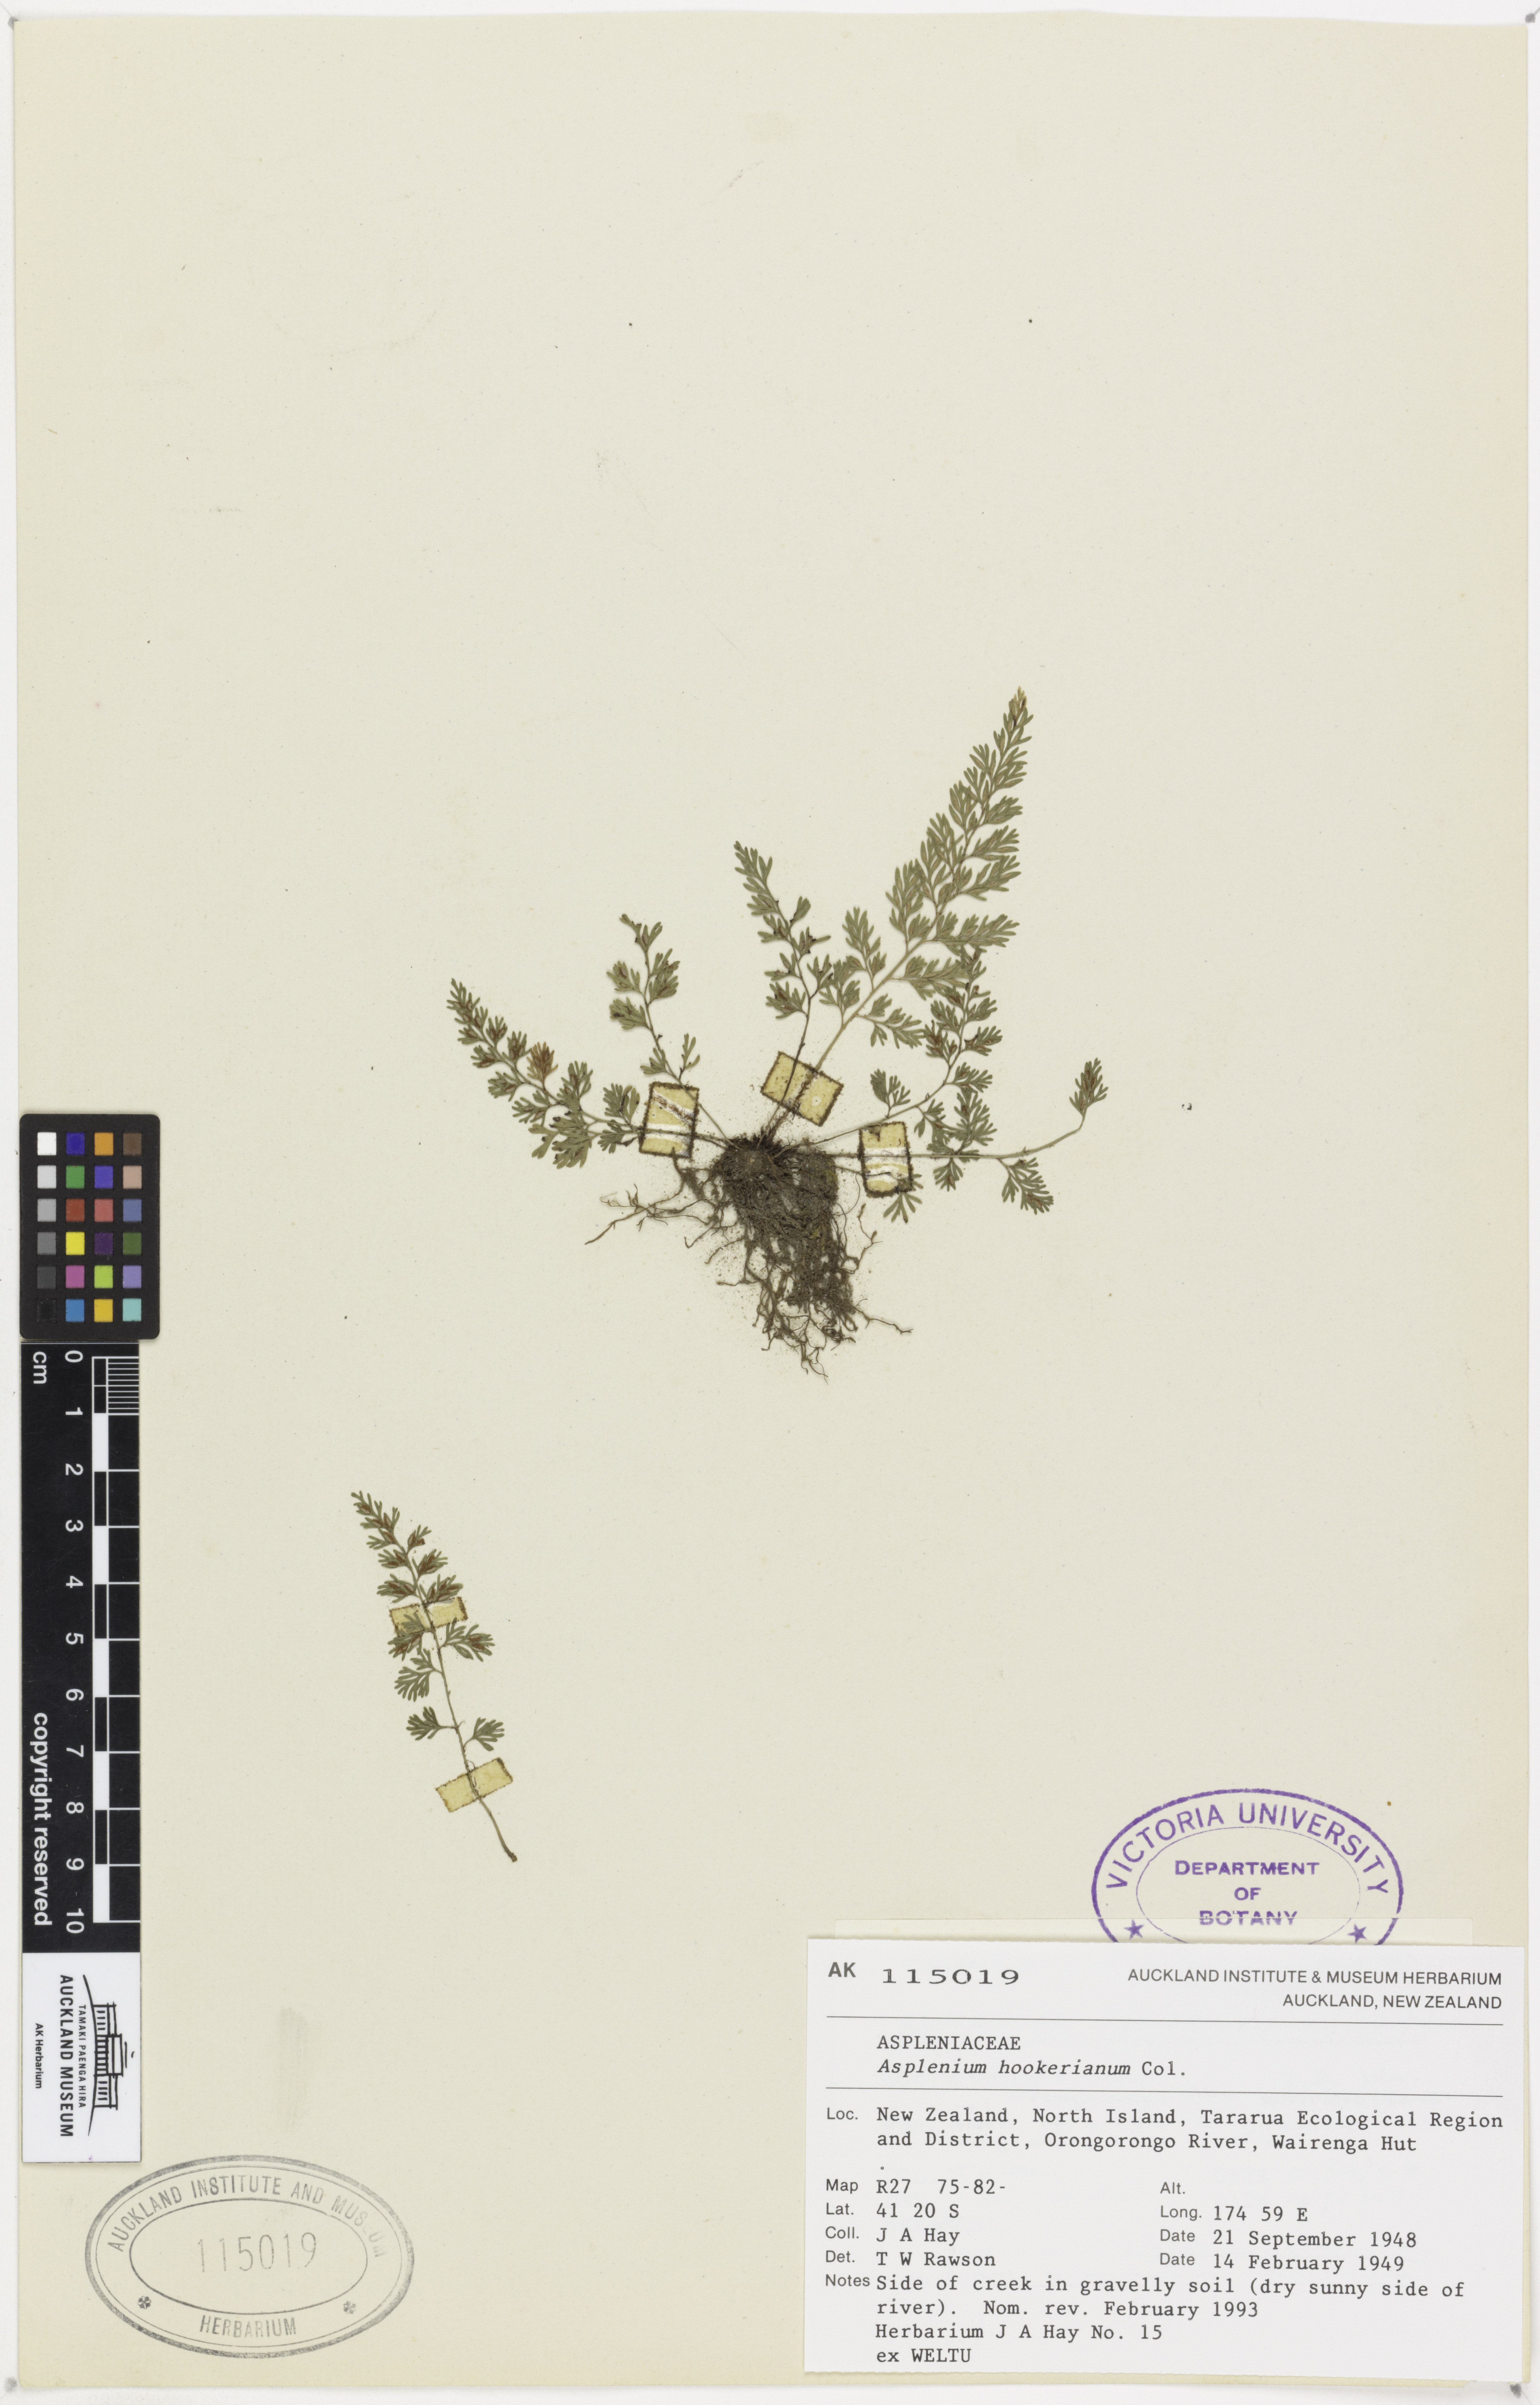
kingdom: Plantae
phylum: Tracheophyta
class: Polypodiopsida
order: Polypodiales
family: Aspleniaceae
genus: Asplenium
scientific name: Asplenium hookerianum
